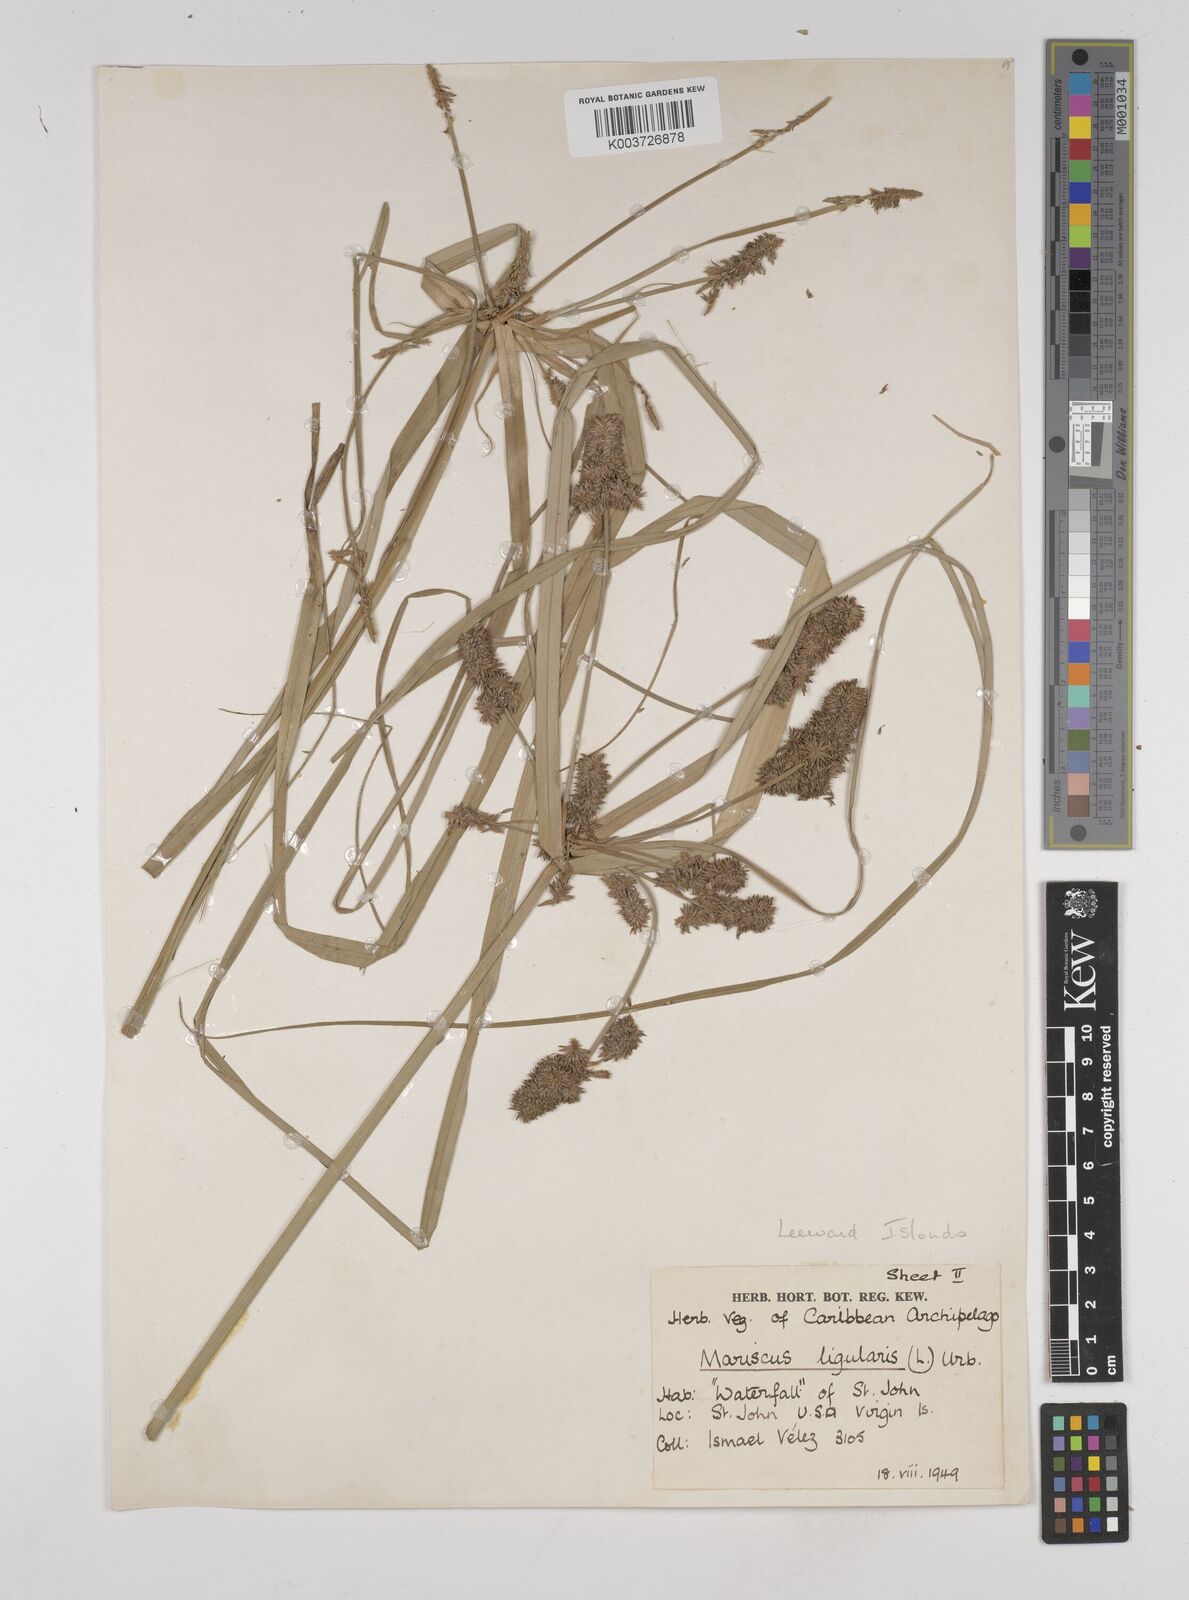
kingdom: Plantae
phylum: Tracheophyta
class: Liliopsida
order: Poales
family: Cyperaceae
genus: Cyperus
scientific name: Cyperus ligularis
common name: Swamp flat sedge
